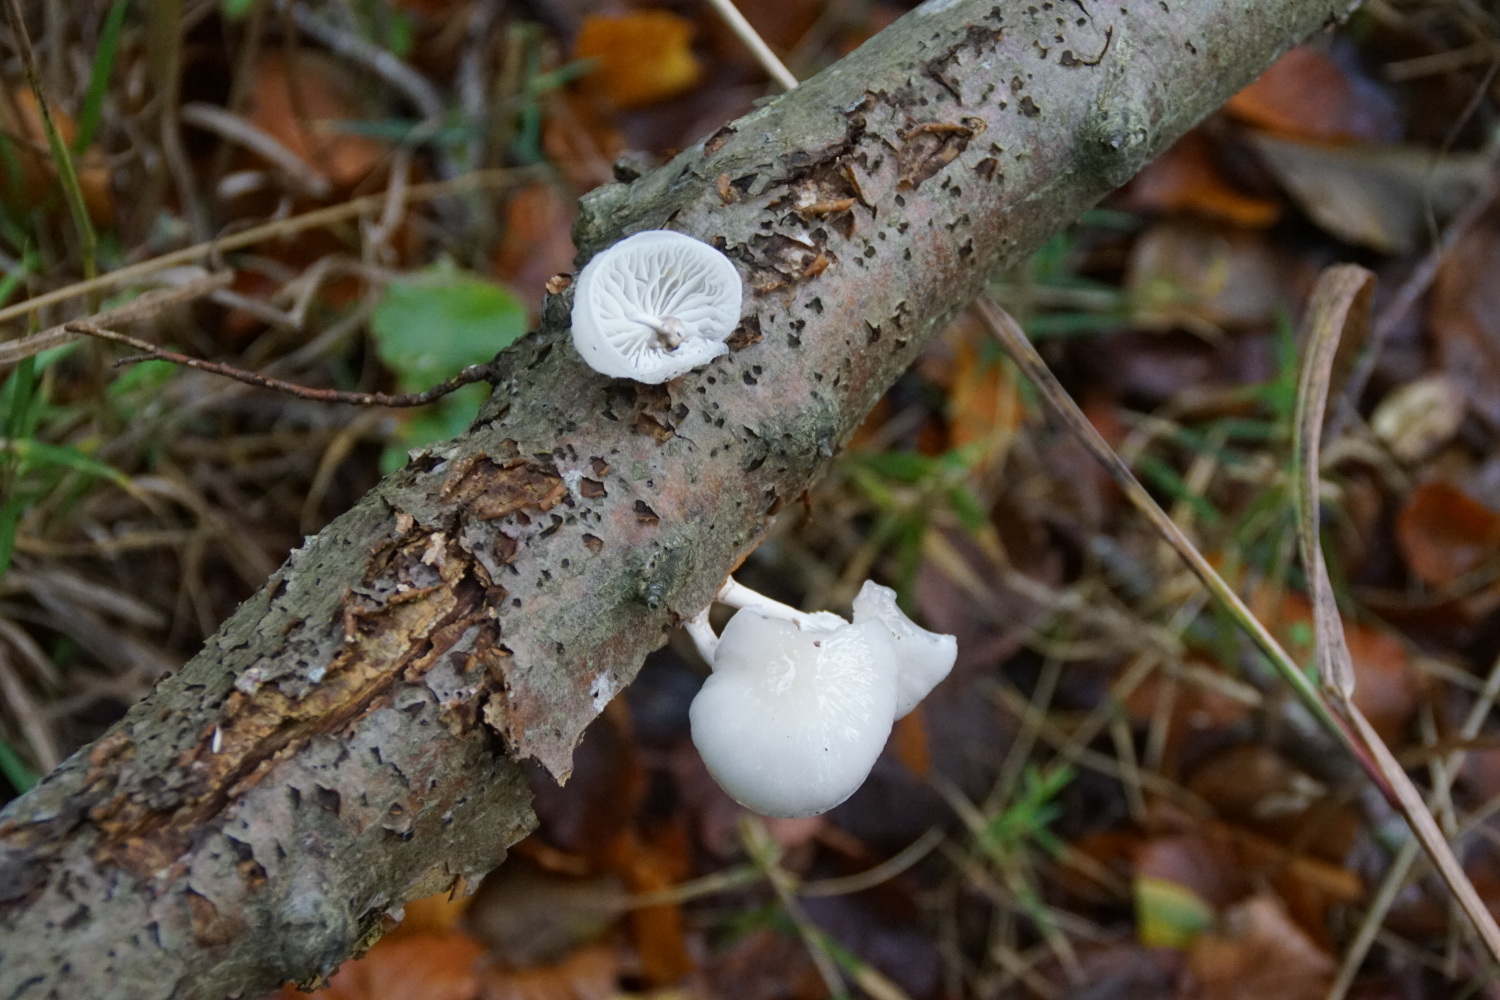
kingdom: Fungi
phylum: Basidiomycota
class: Agaricomycetes
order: Agaricales
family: Physalacriaceae
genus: Mucidula
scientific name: Mucidula mucida
